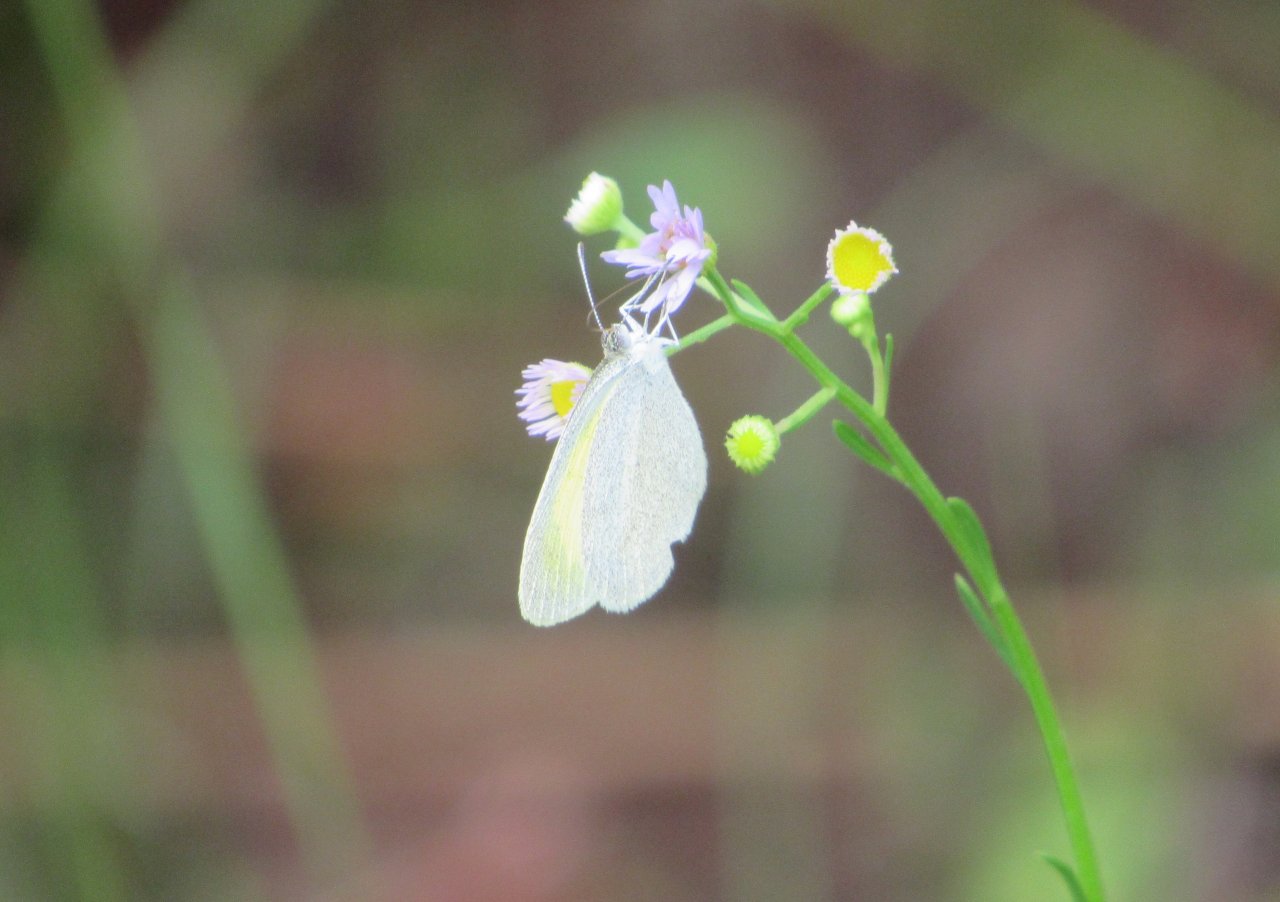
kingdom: Animalia
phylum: Arthropoda
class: Insecta
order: Lepidoptera
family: Pieridae
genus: Eurema
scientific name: Eurema daira
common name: Barred Yellow
